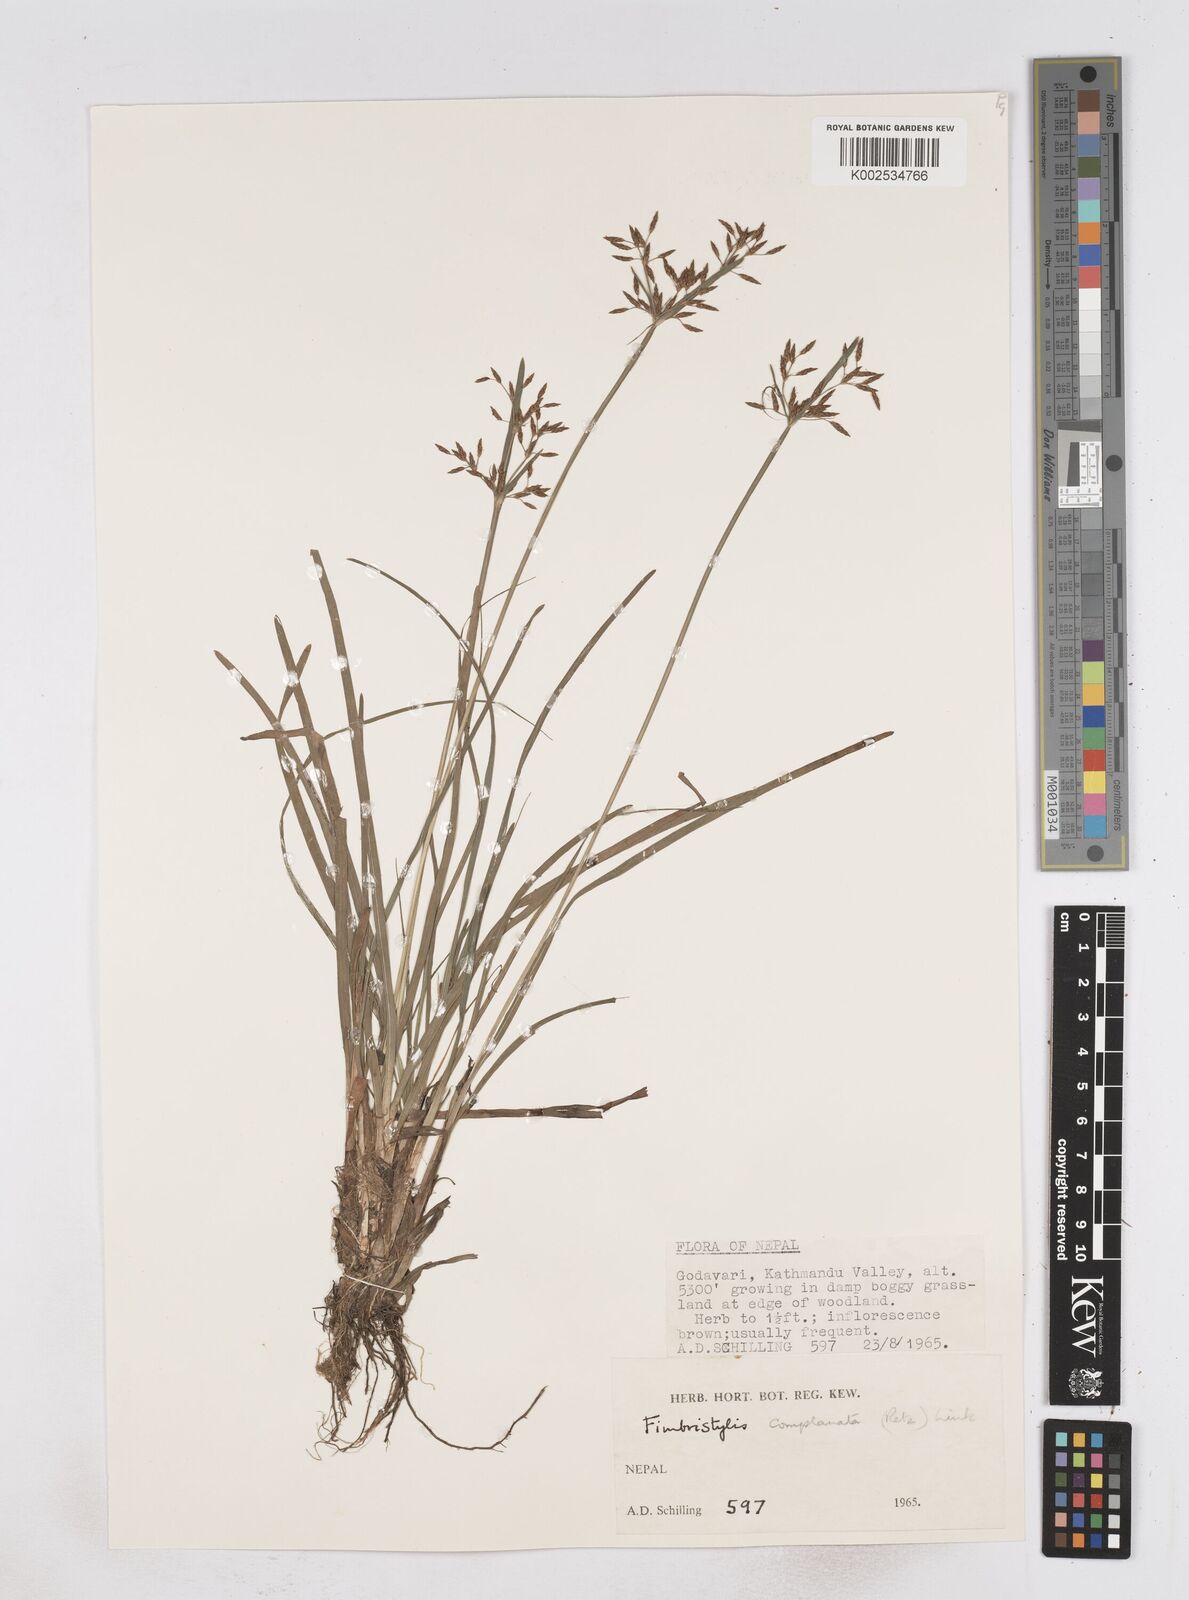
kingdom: Plantae
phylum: Tracheophyta
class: Liliopsida
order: Poales
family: Cyperaceae
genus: Fimbristylis
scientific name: Fimbristylis complanata
